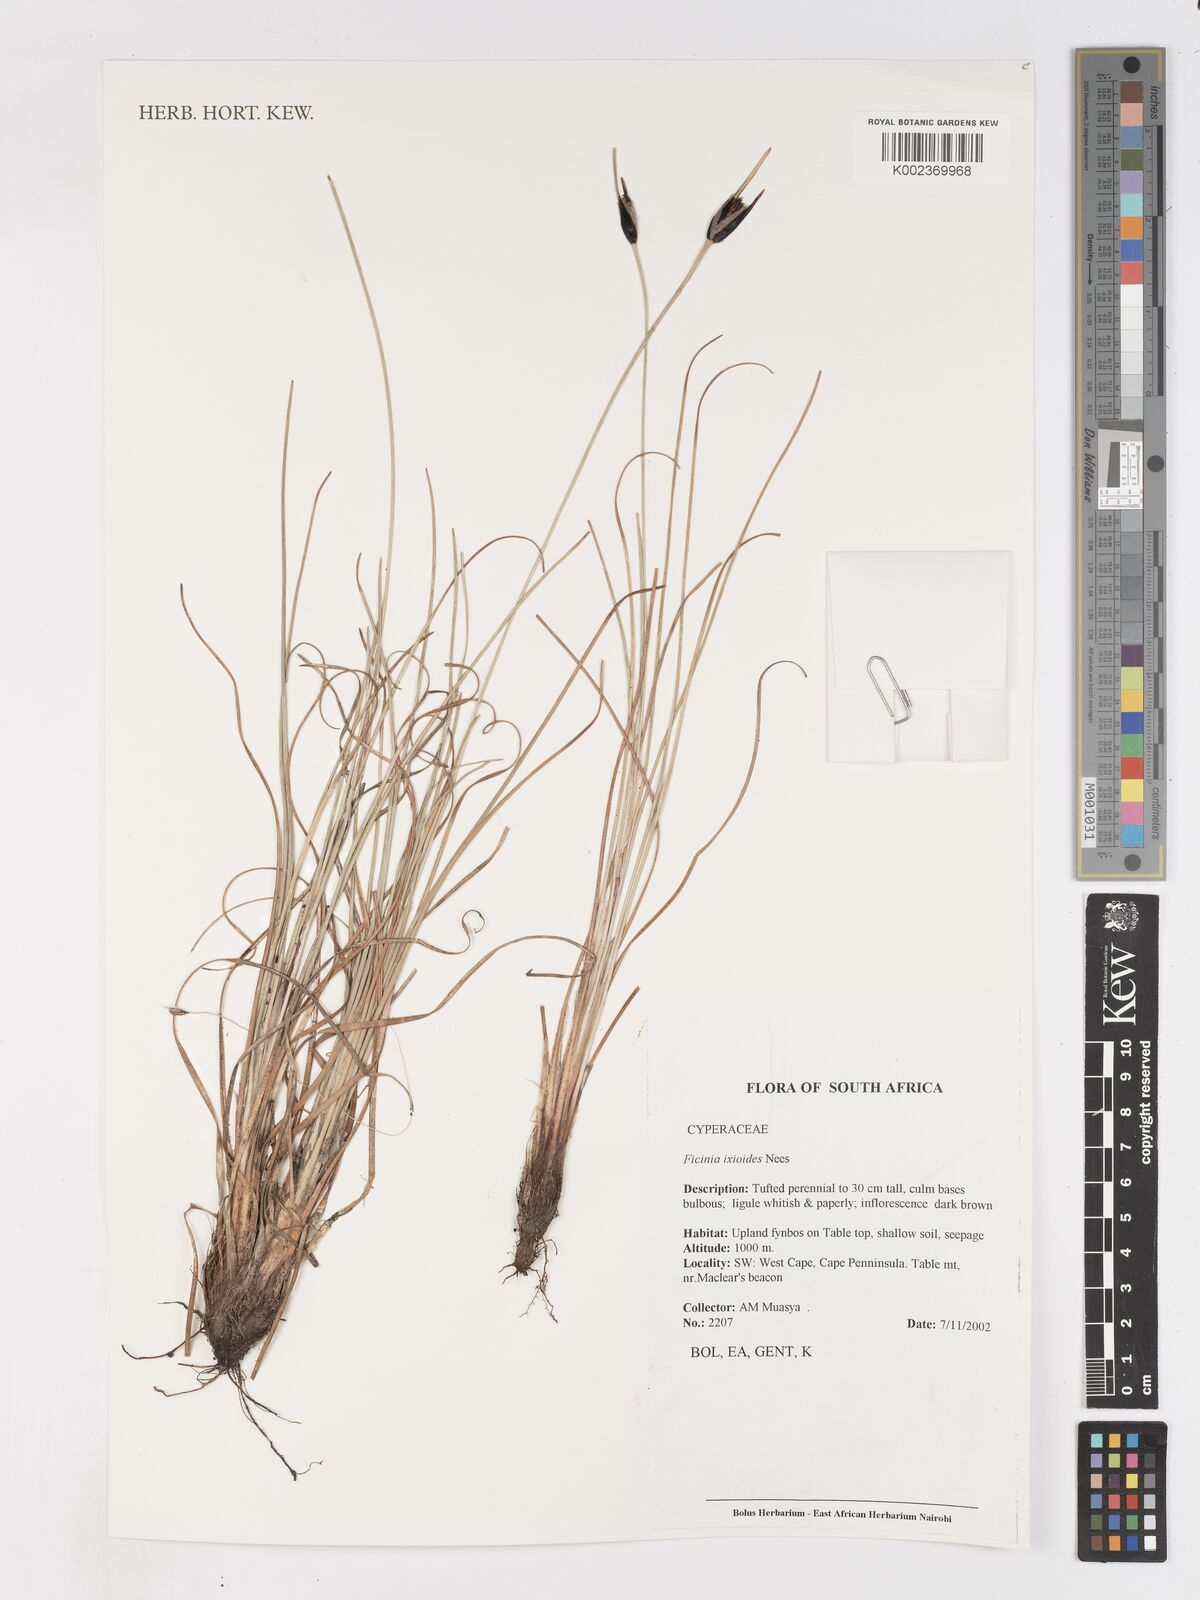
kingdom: Plantae
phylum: Tracheophyta
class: Liliopsida
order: Poales
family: Cyperaceae
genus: Ficinia
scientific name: Ficinia ixioides
